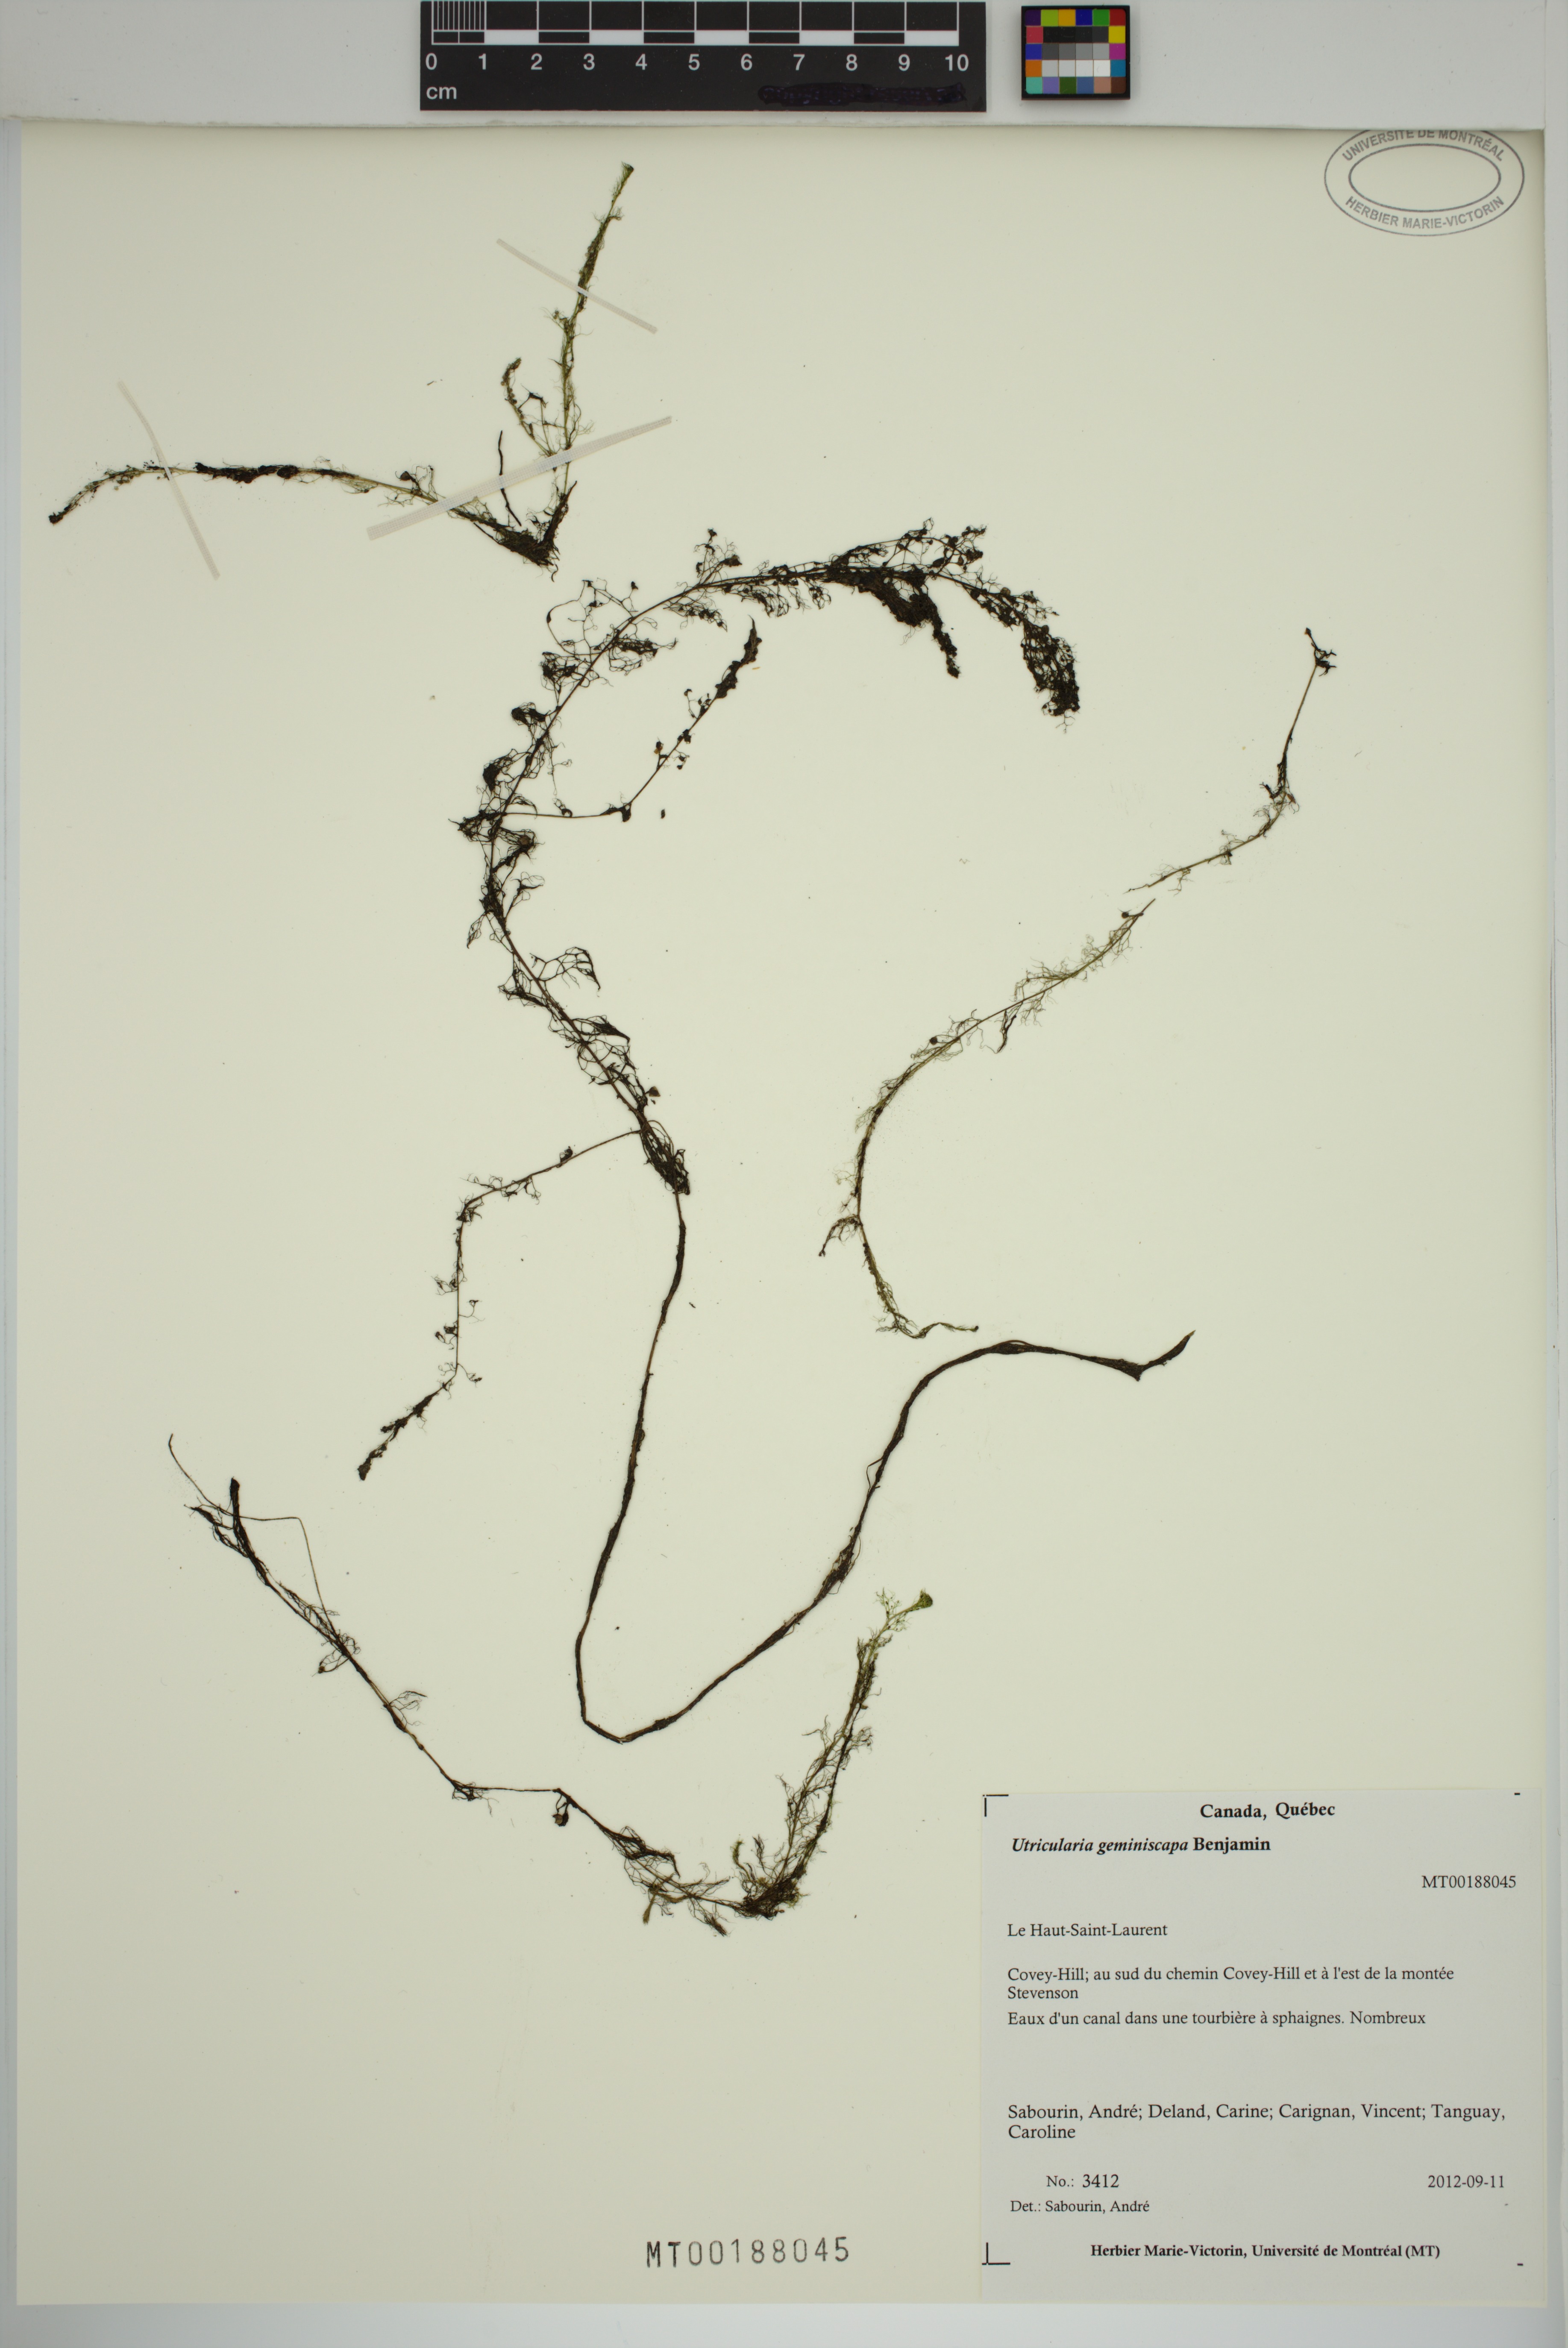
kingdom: Plantae
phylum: Tracheophyta
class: Magnoliopsida
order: Lamiales
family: Lentibulariaceae
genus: Utricularia
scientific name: Utricularia geminiscapa
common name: Hidden-fruit bladderwort
